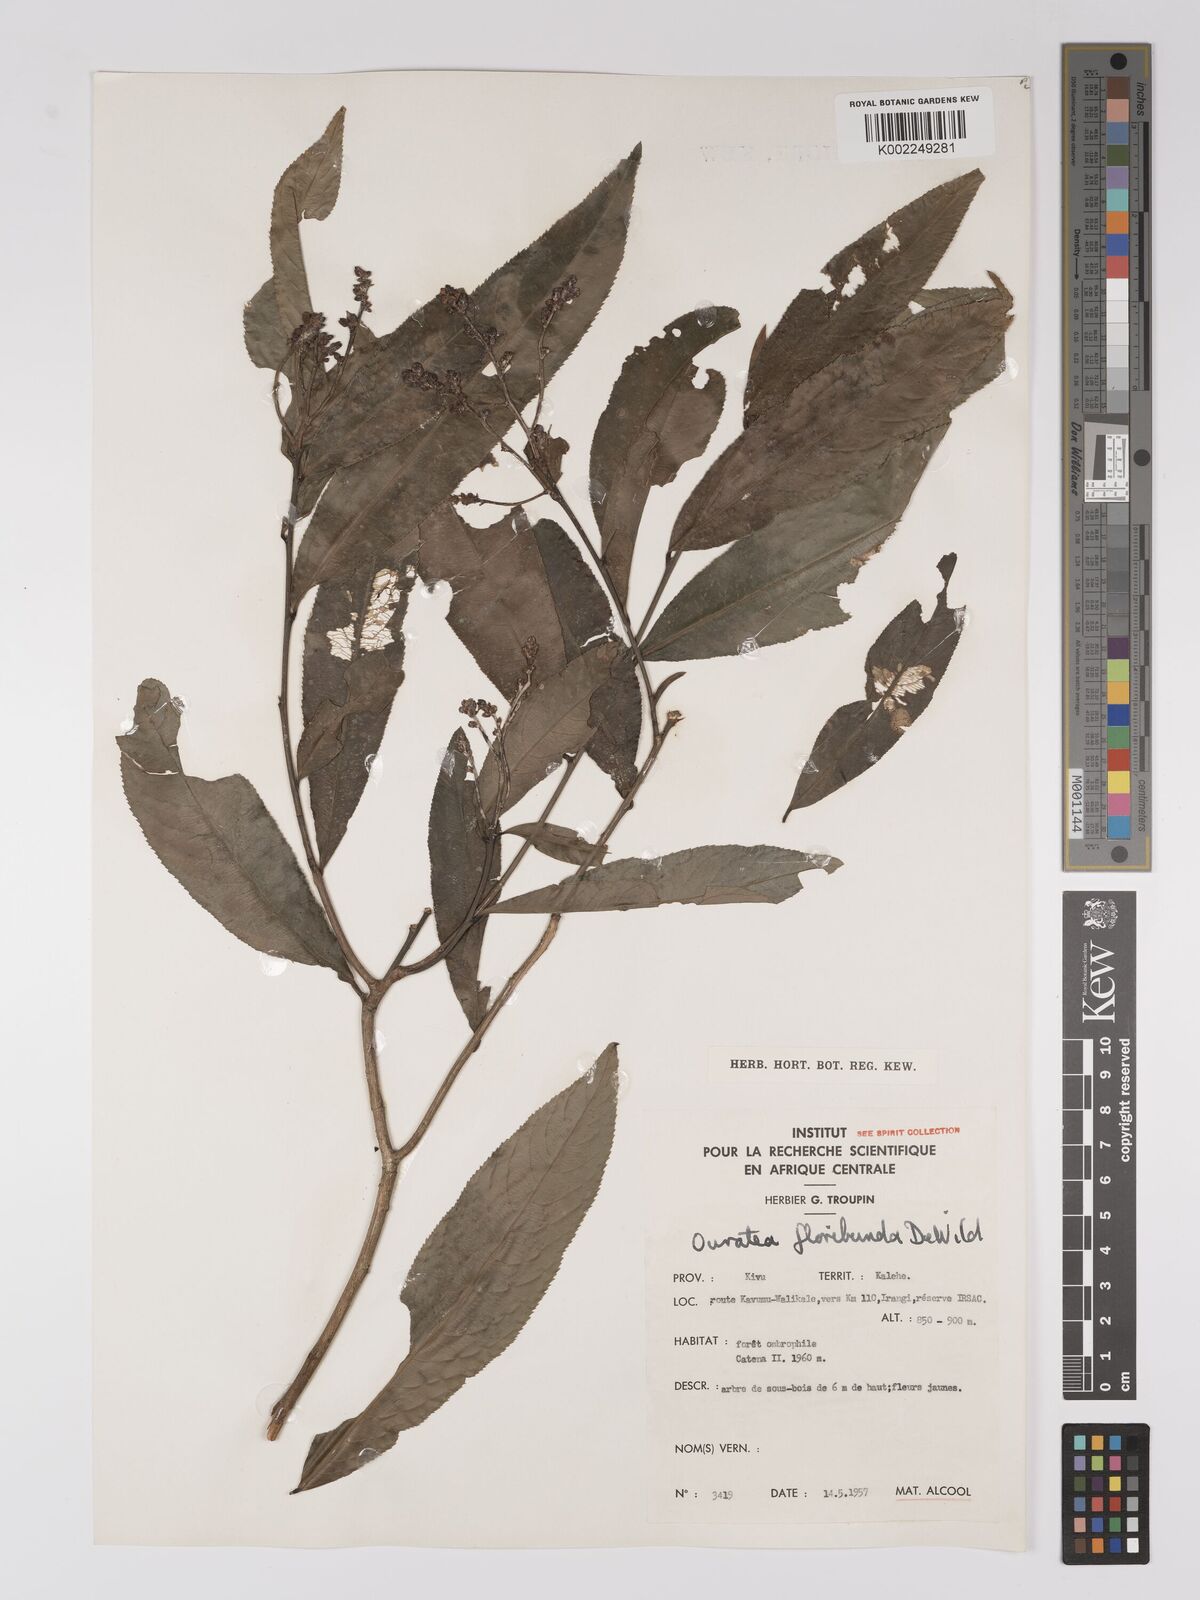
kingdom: Plantae
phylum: Tracheophyta
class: Magnoliopsida
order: Malpighiales
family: Ochnaceae
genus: Campylospermum
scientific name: Campylospermum likimiense
